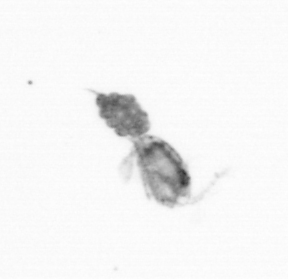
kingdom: Animalia
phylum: Arthropoda
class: Copepoda
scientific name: Copepoda
